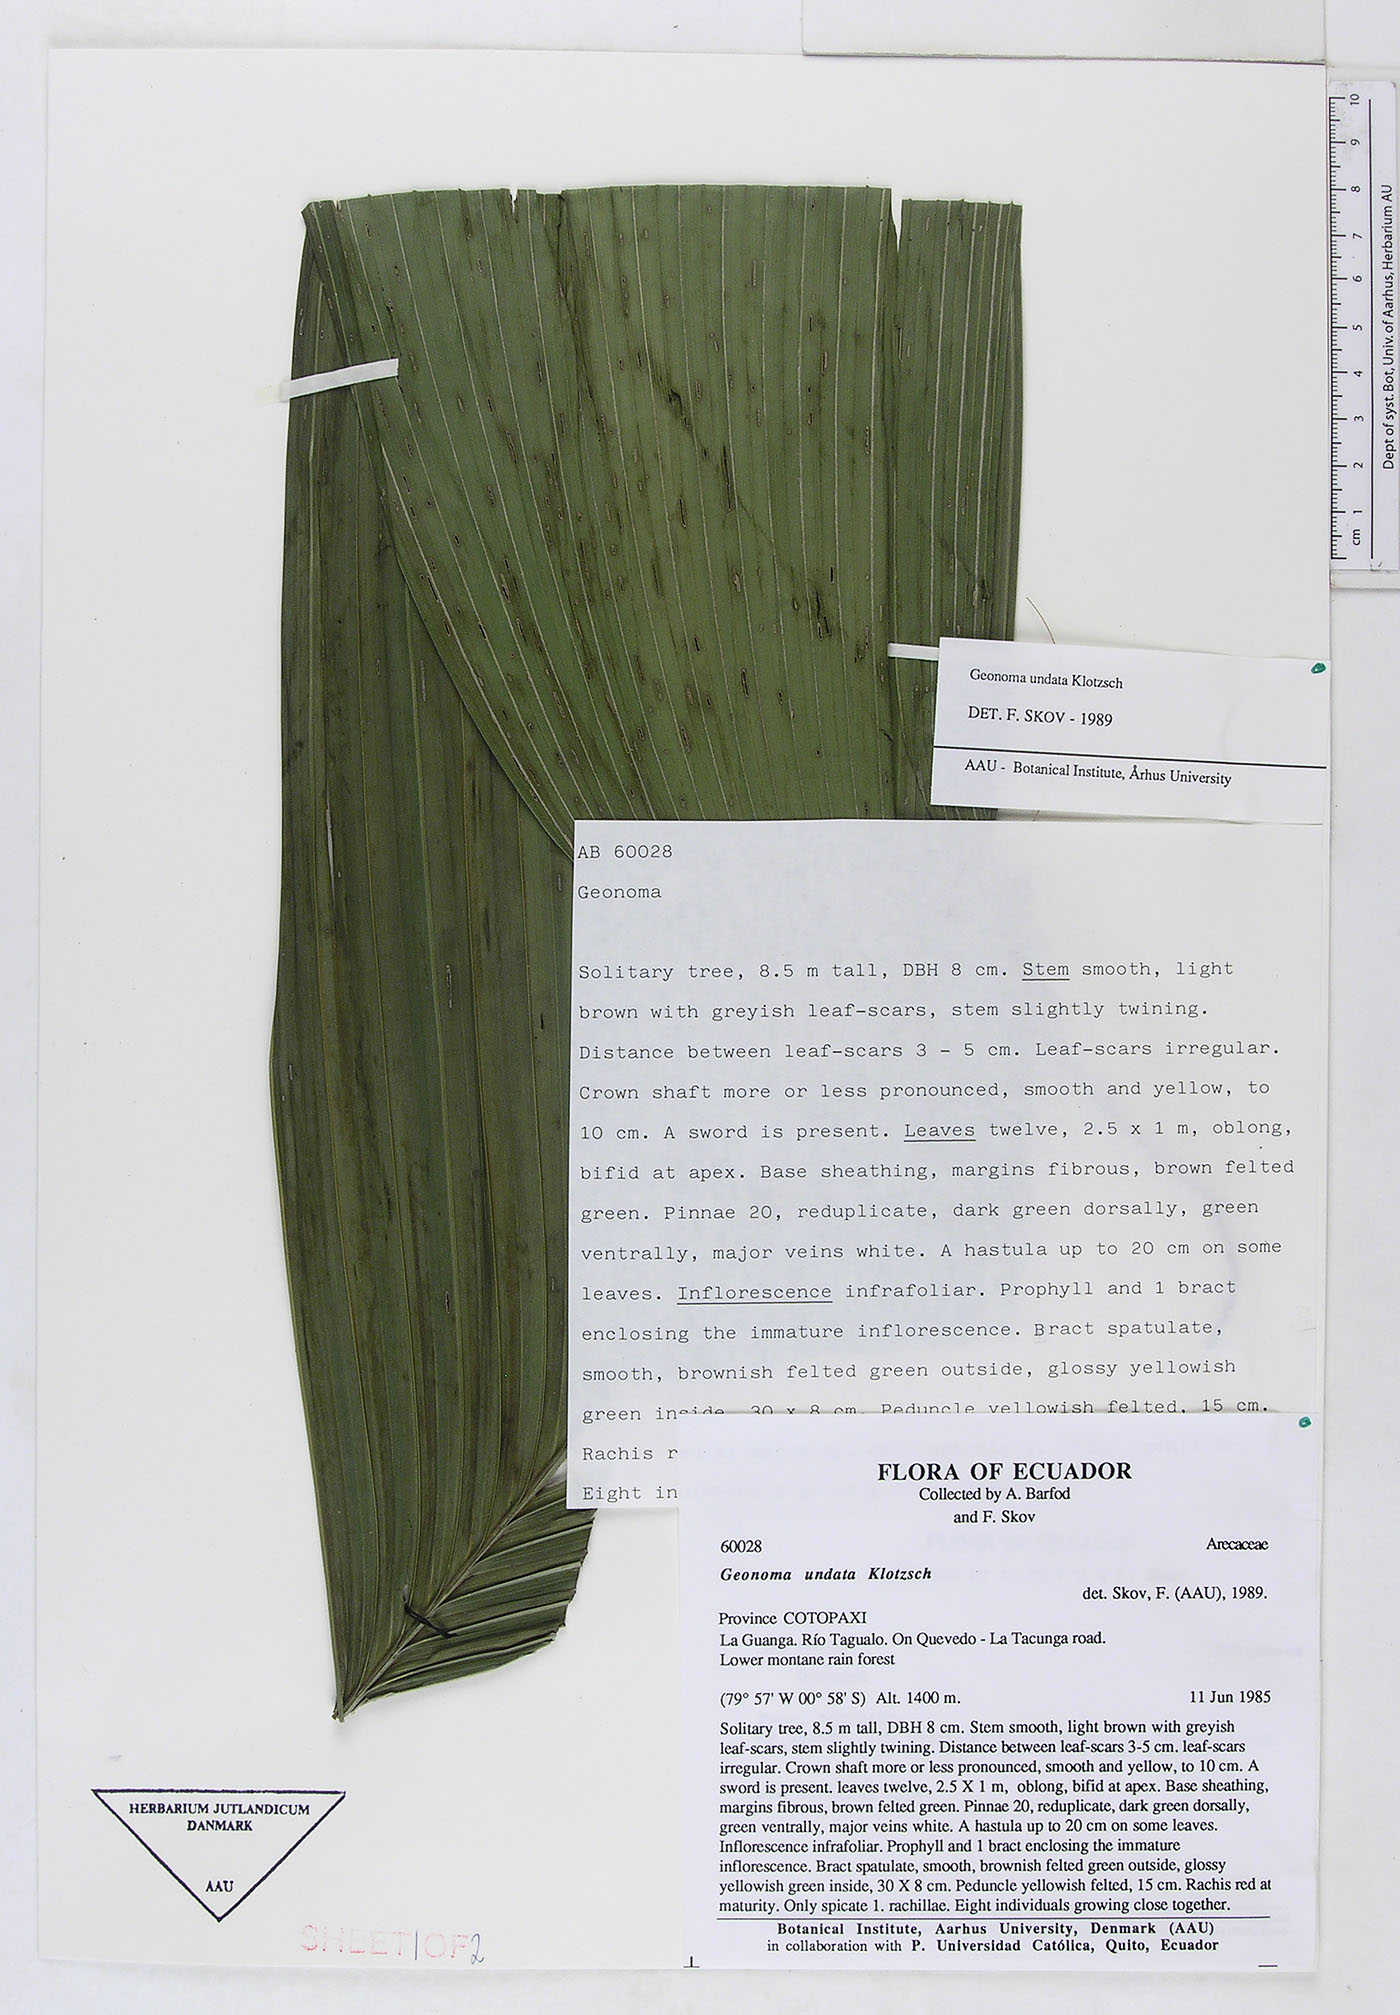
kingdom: Plantae
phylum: Tracheophyta
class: Liliopsida
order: Arecales
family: Arecaceae
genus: Geonoma
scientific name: Geonoma undata
